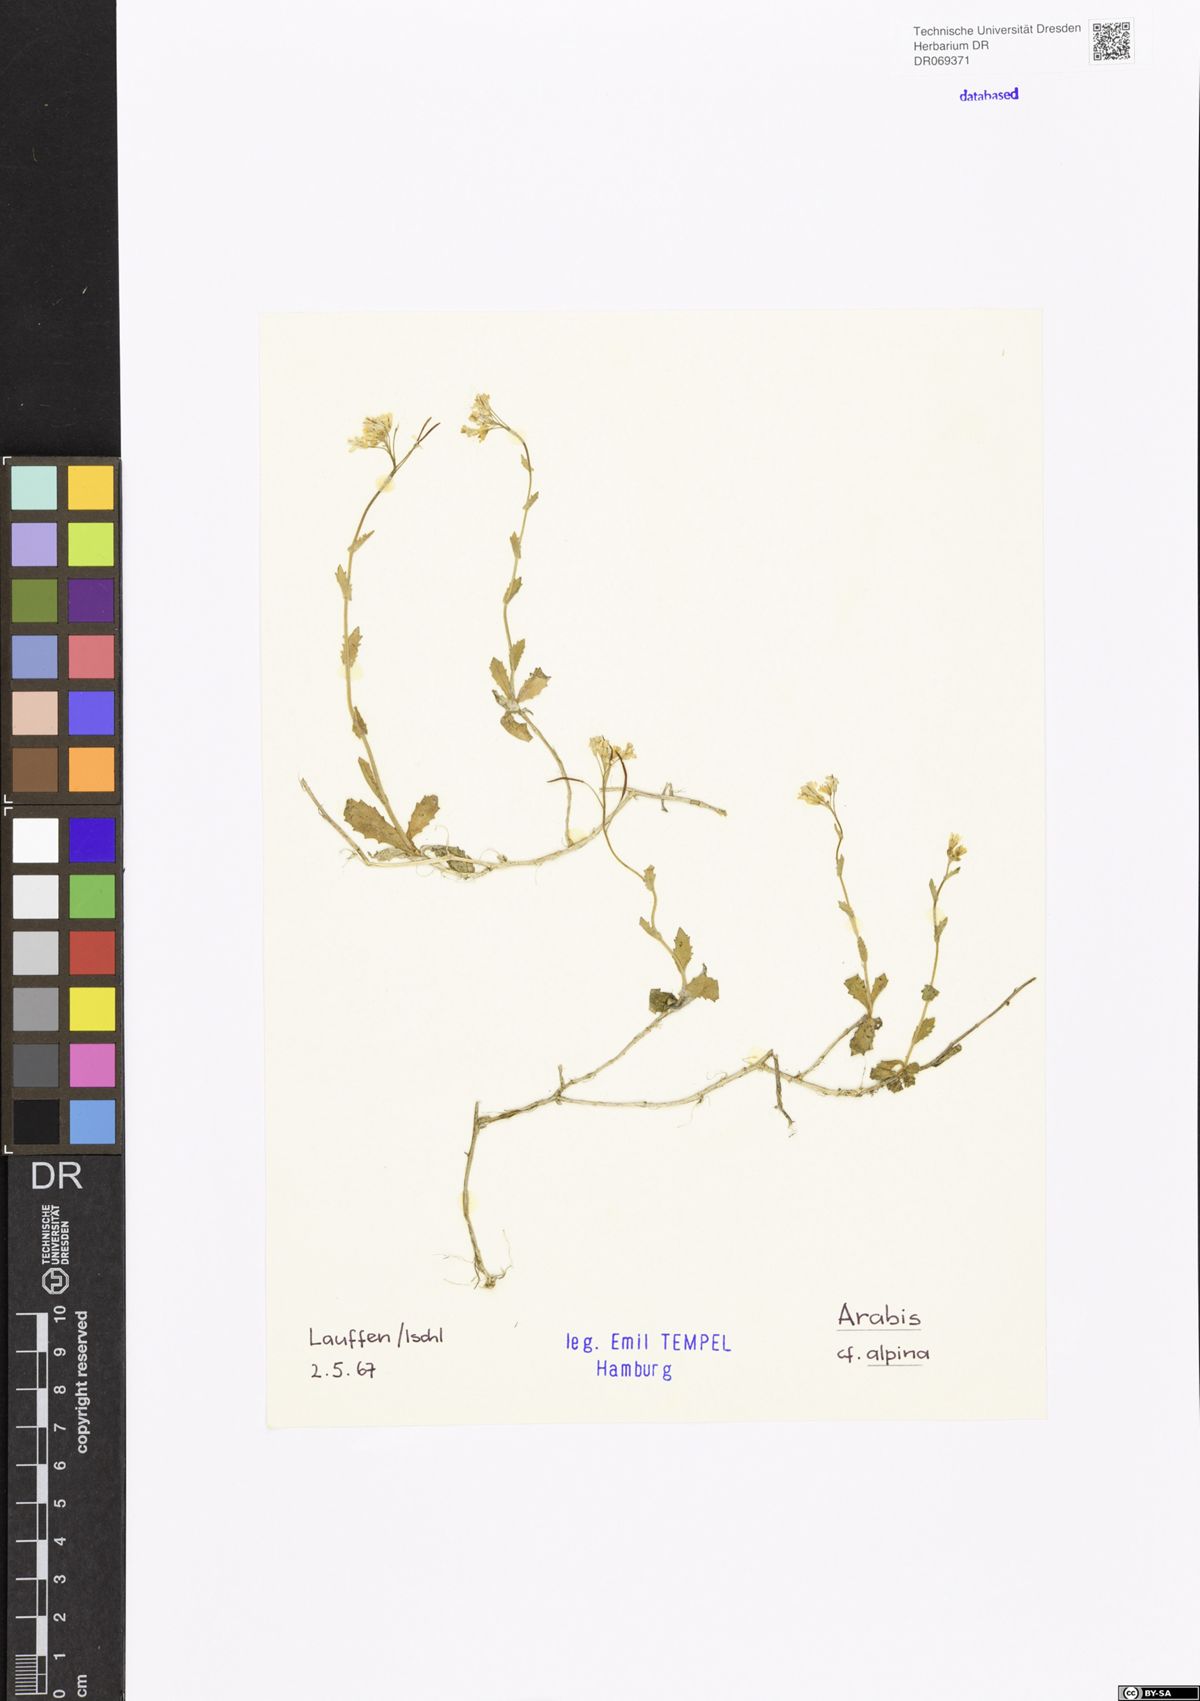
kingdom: Plantae
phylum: Tracheophyta
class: Magnoliopsida
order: Brassicales
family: Brassicaceae
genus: Arabis
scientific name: Arabis alpina
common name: Alpine rock-cress
